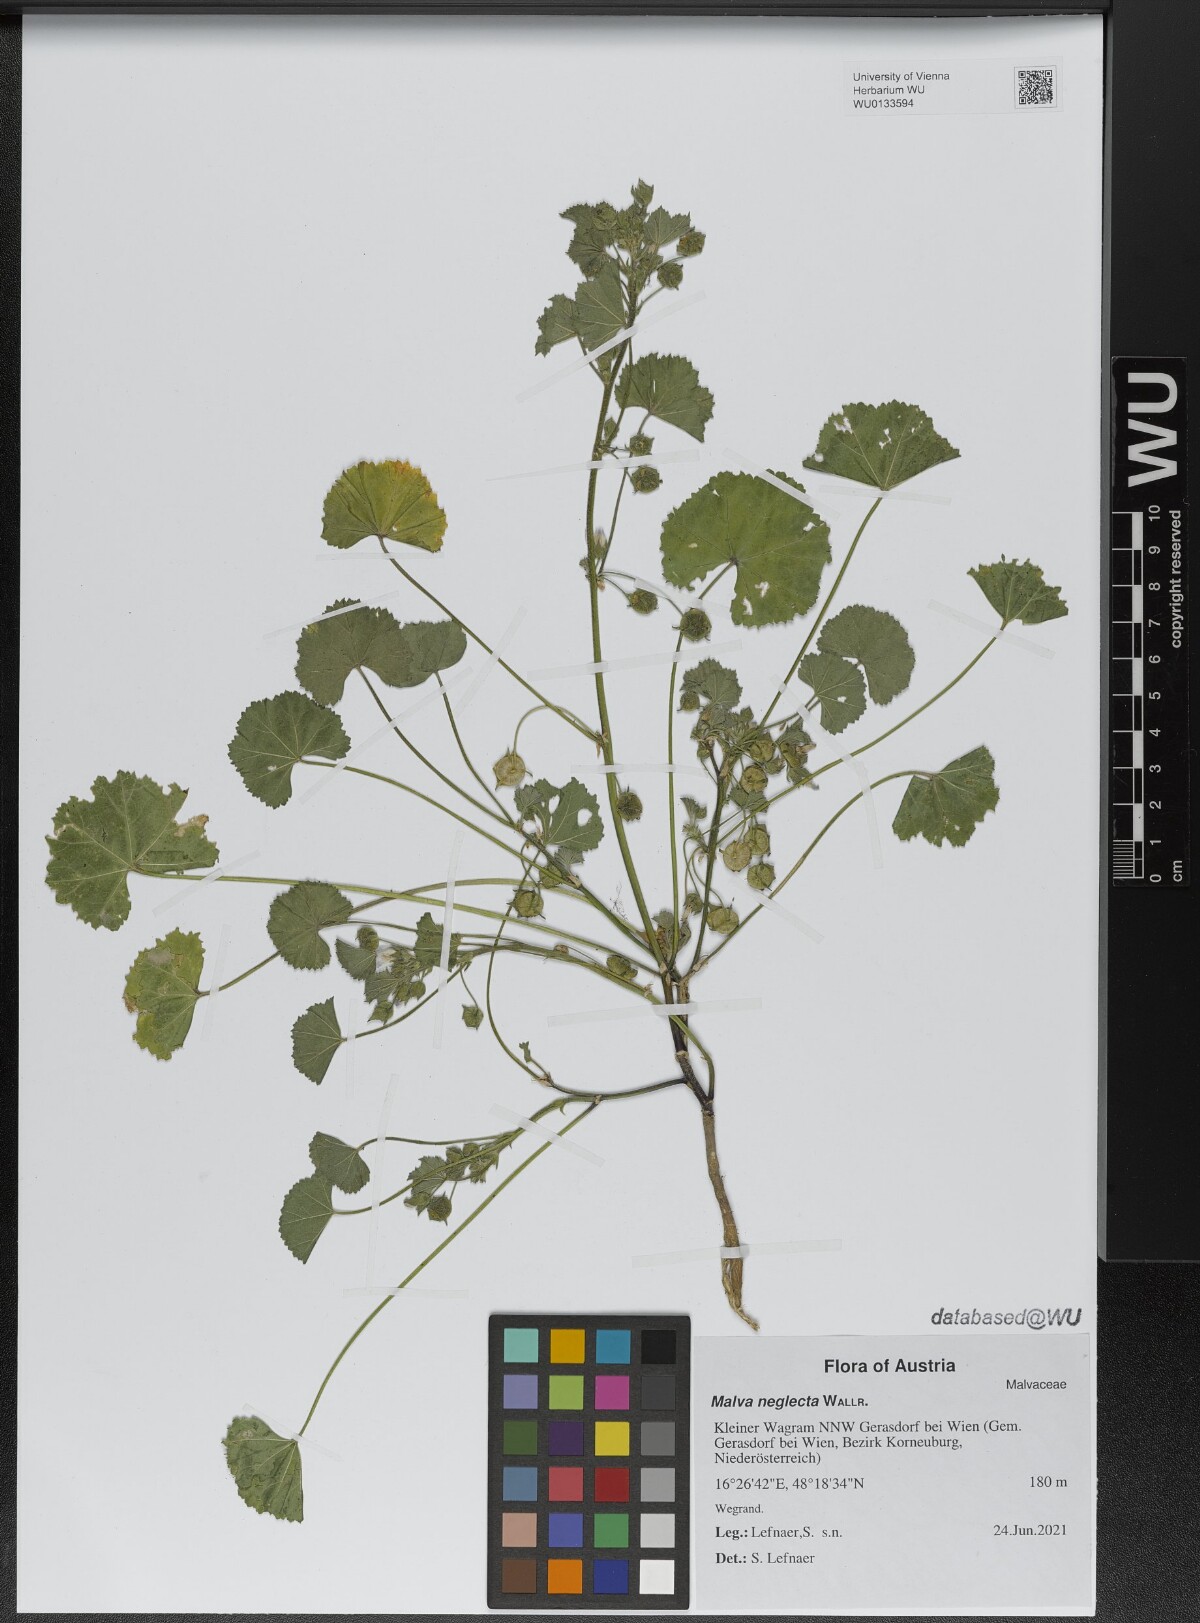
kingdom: Plantae
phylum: Tracheophyta
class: Magnoliopsida
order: Malvales
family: Malvaceae
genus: Malva
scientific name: Malva neglecta
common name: Common mallow
